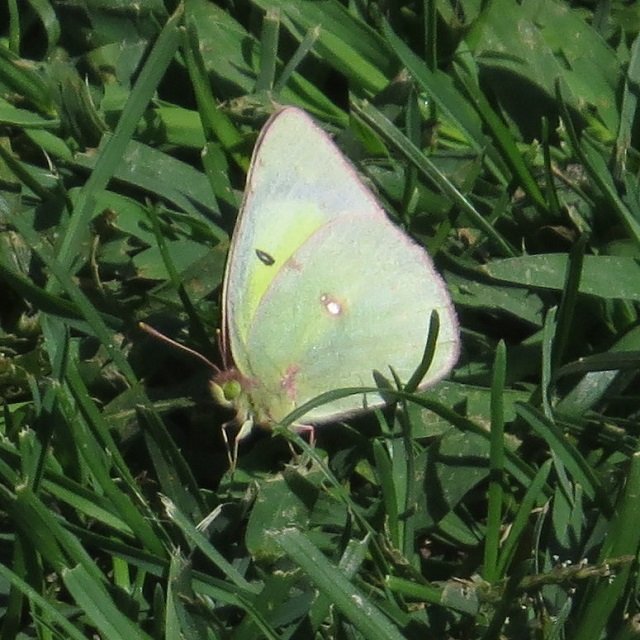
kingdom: Animalia
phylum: Arthropoda
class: Insecta
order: Lepidoptera
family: Pieridae
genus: Colias
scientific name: Colias philodice
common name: Clouded Sulphur
